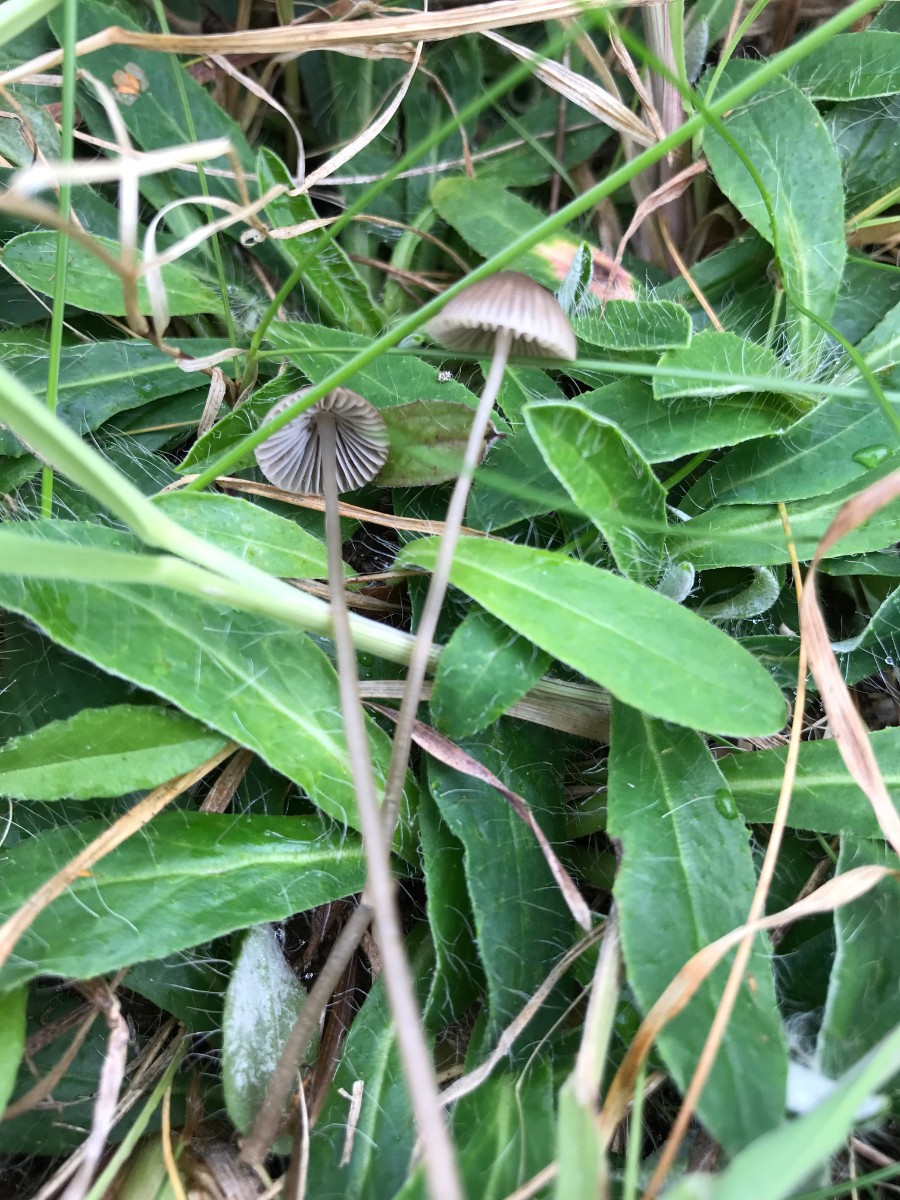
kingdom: Fungi
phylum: Basidiomycota
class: Agaricomycetes
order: Agaricales
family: Mycenaceae
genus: Mycena
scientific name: Mycena aetites
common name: plæne-huesvamp
